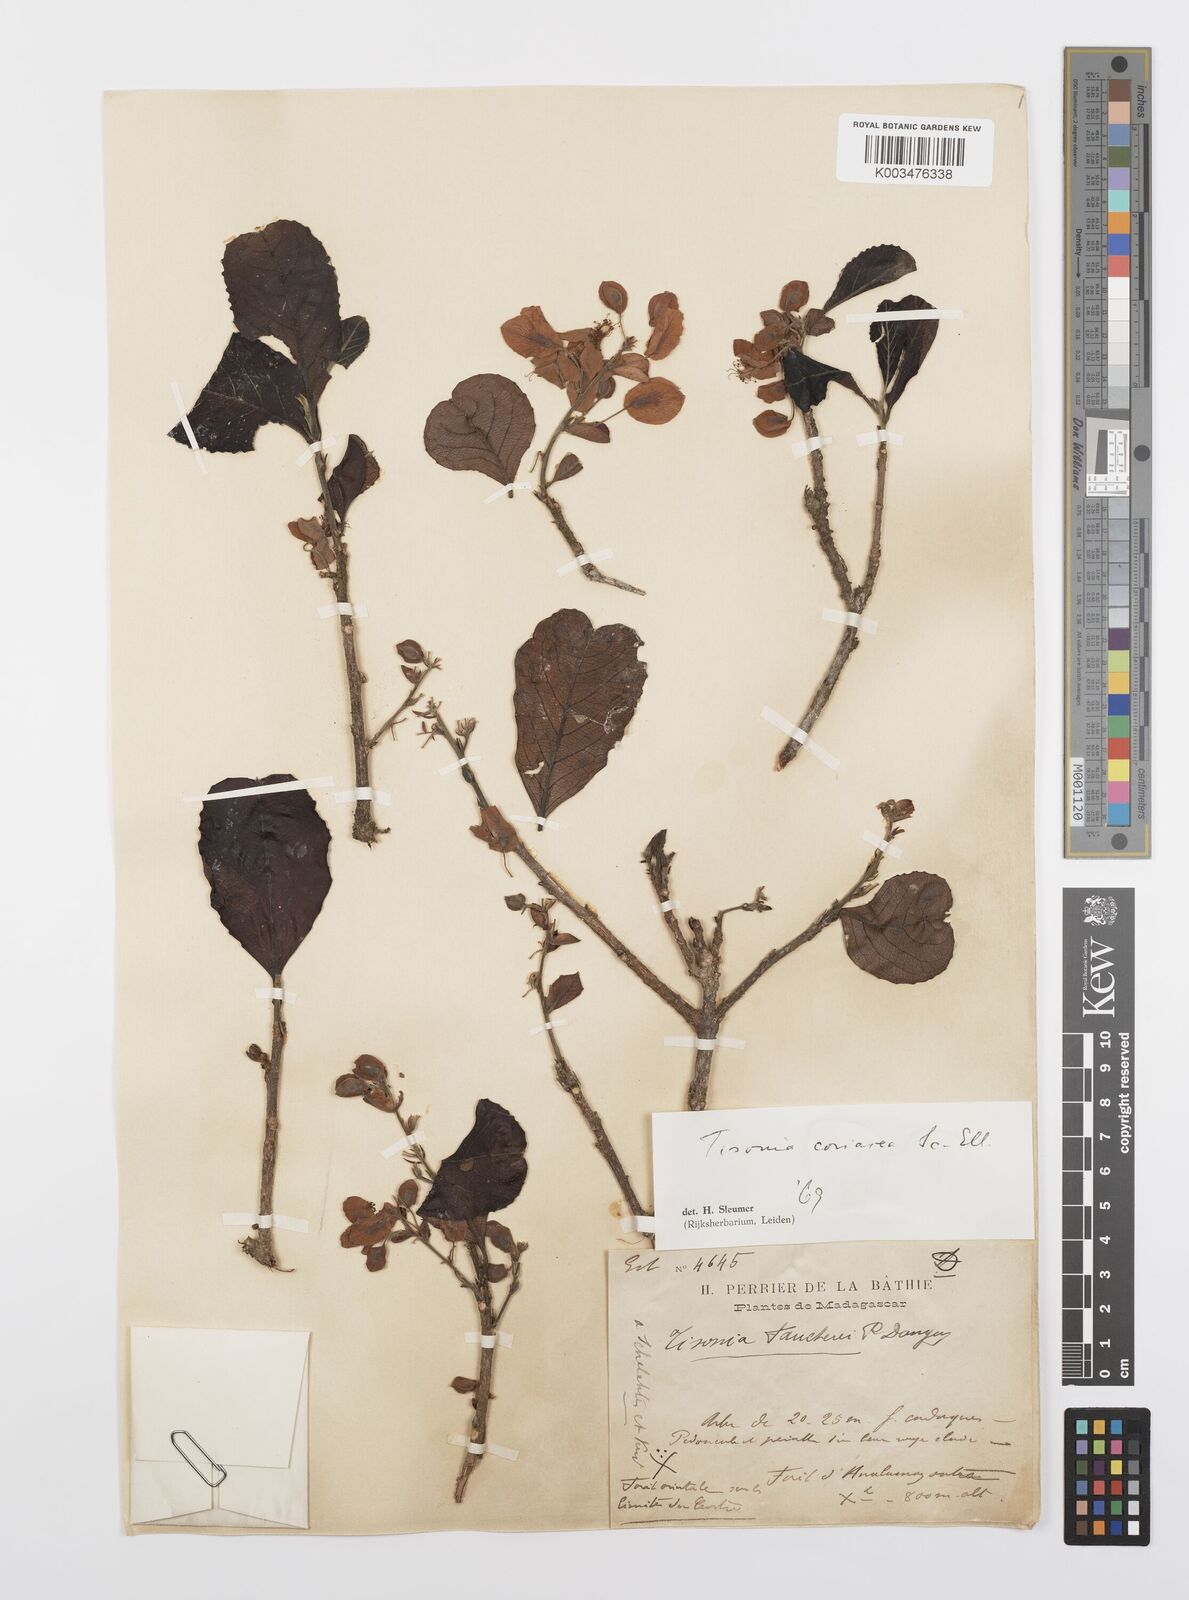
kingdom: Plantae
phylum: Tracheophyta
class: Magnoliopsida
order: Malpighiales
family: Salicaceae
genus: Tisonia
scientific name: Tisonia coriacea
